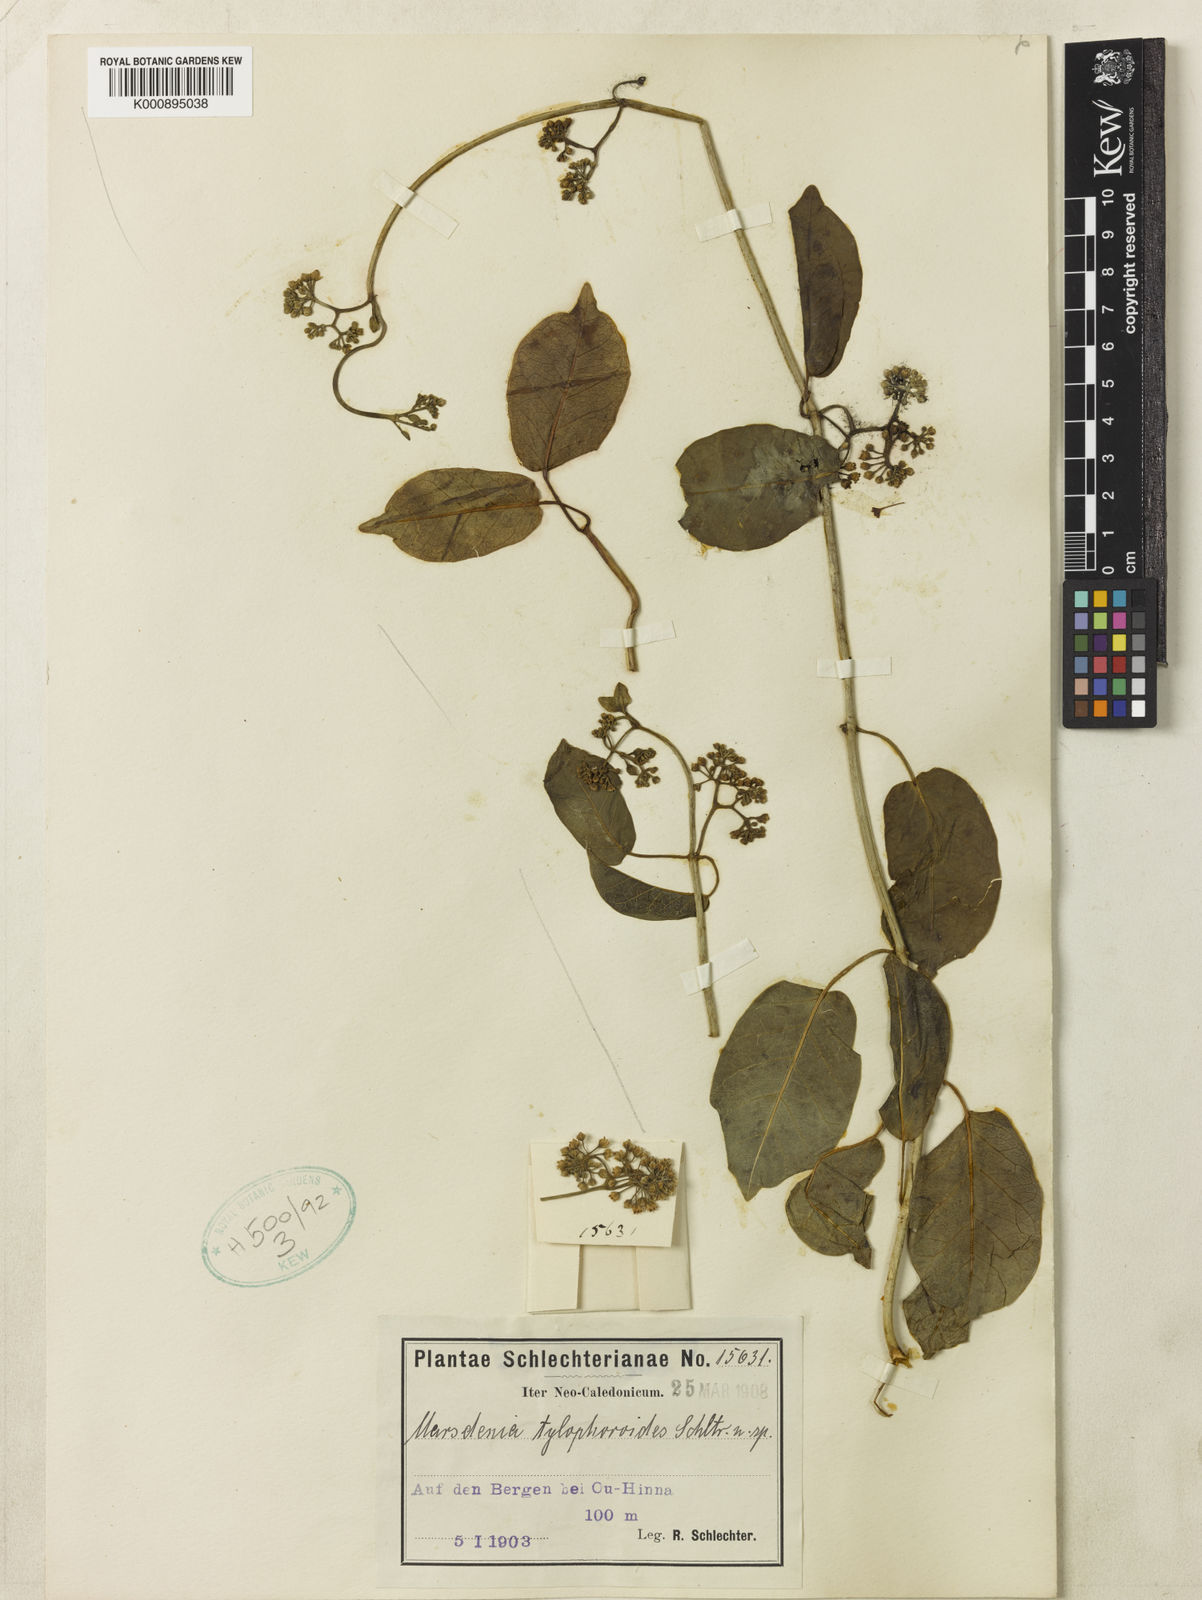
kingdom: Plantae
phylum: Tracheophyta
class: Magnoliopsida
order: Gentianales
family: Apocynaceae
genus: Leichhardtia
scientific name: Leichhardtia tylophoroides
